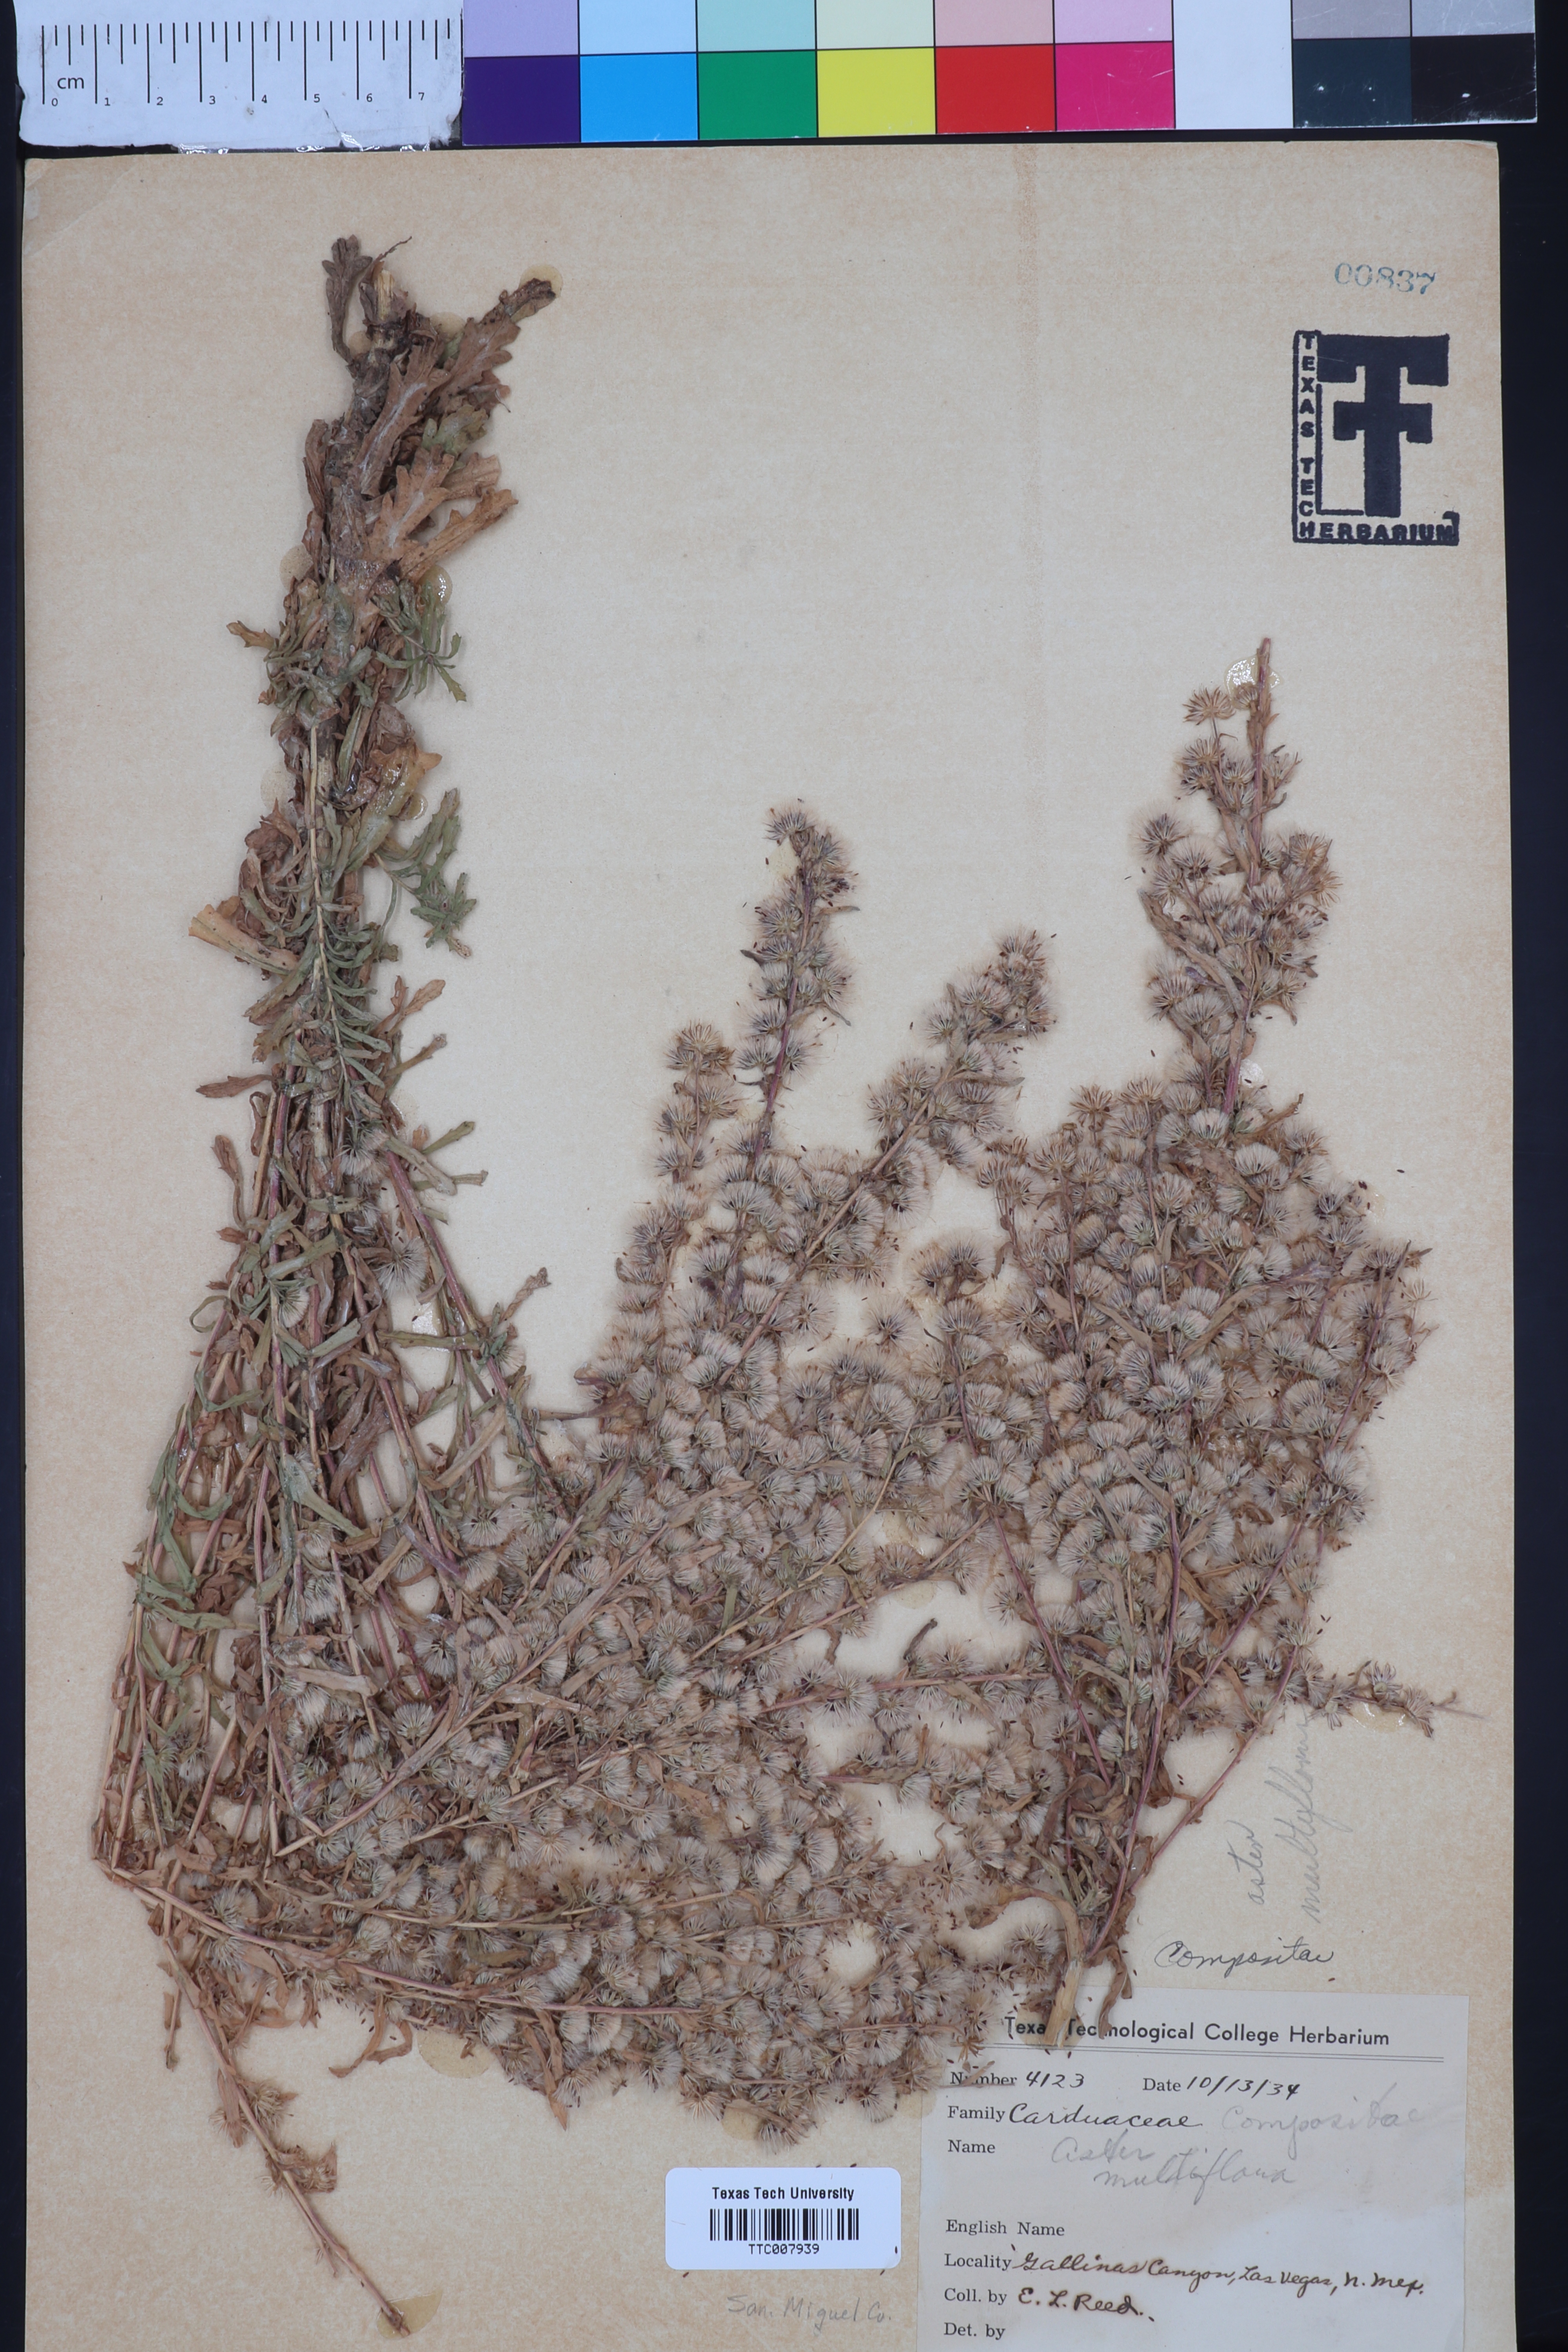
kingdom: Plantae
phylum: Tracheophyta
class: Magnoliopsida
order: Asterales
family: Asteraceae
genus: Symphyotrichum
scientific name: Symphyotrichum ericoides
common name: Heath aster
